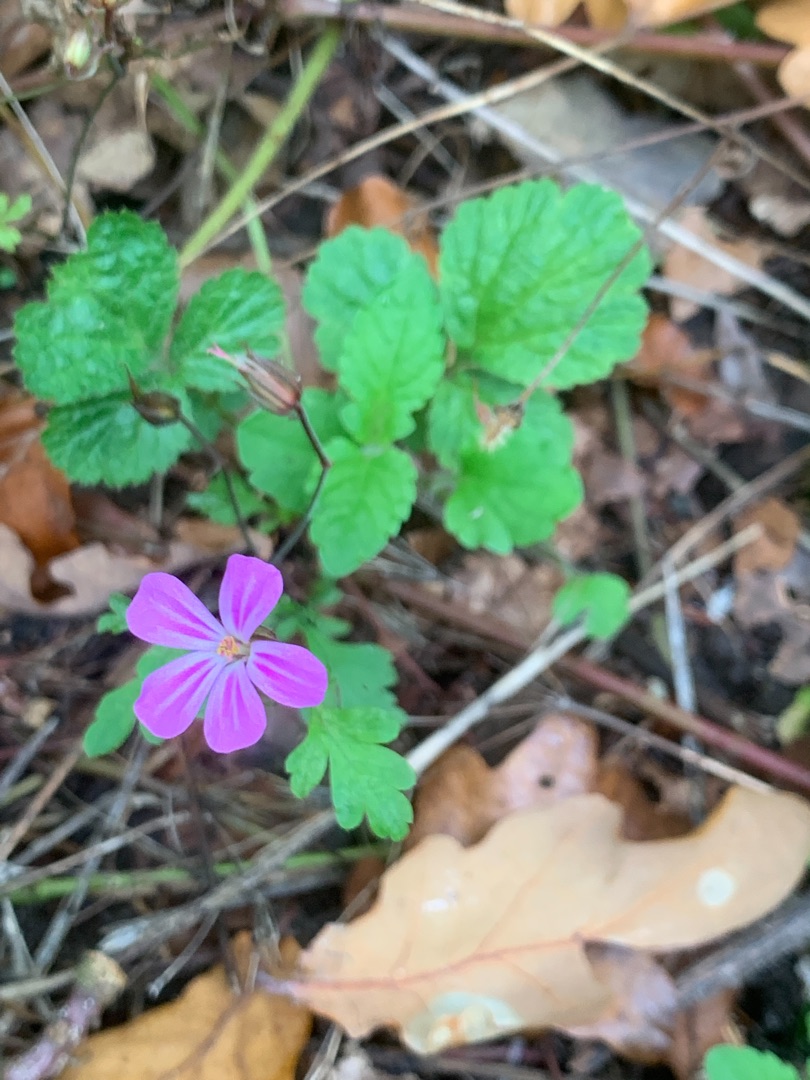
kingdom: Plantae
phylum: Tracheophyta
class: Magnoliopsida
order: Geraniales
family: Geraniaceae
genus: Geranium
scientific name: Geranium robertianum
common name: Stinkende storkenæb
